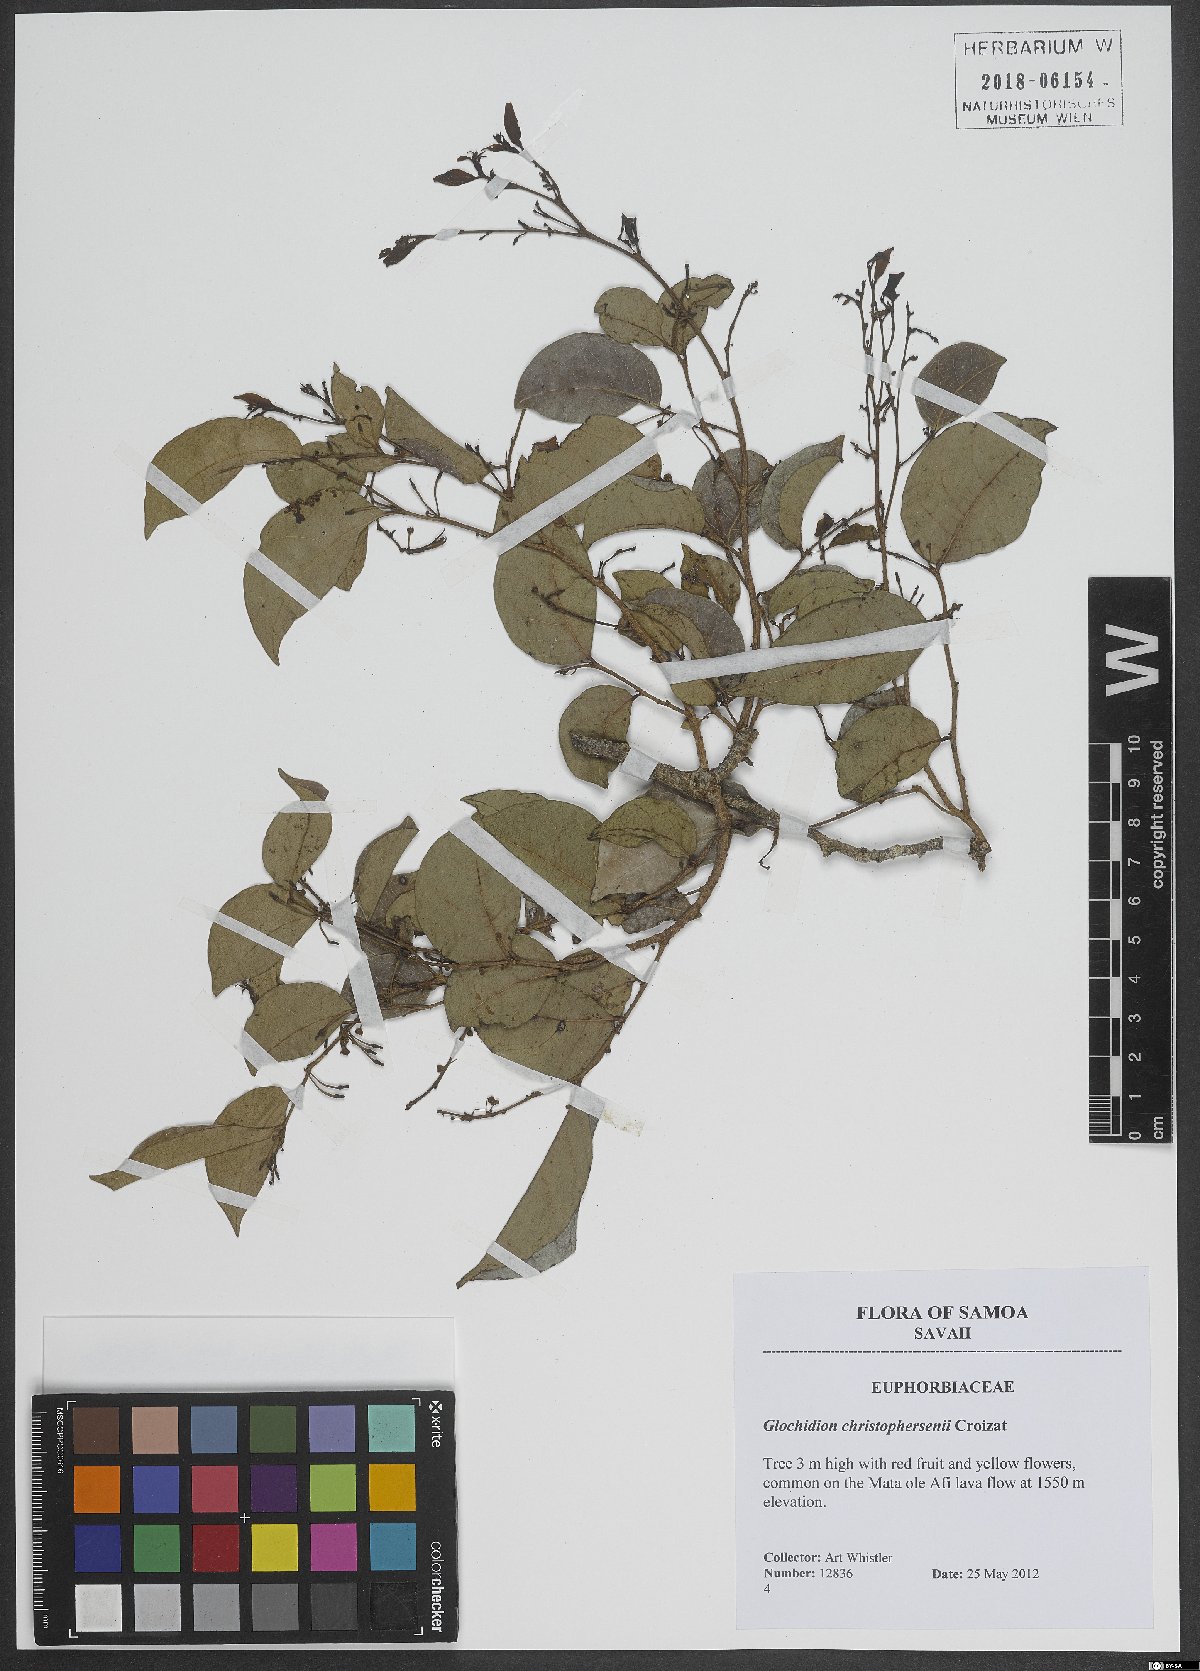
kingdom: Plantae
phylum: Tracheophyta
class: Magnoliopsida
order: Malpighiales
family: Phyllanthaceae
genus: Glochidion
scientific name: Glochidion christophersenii
